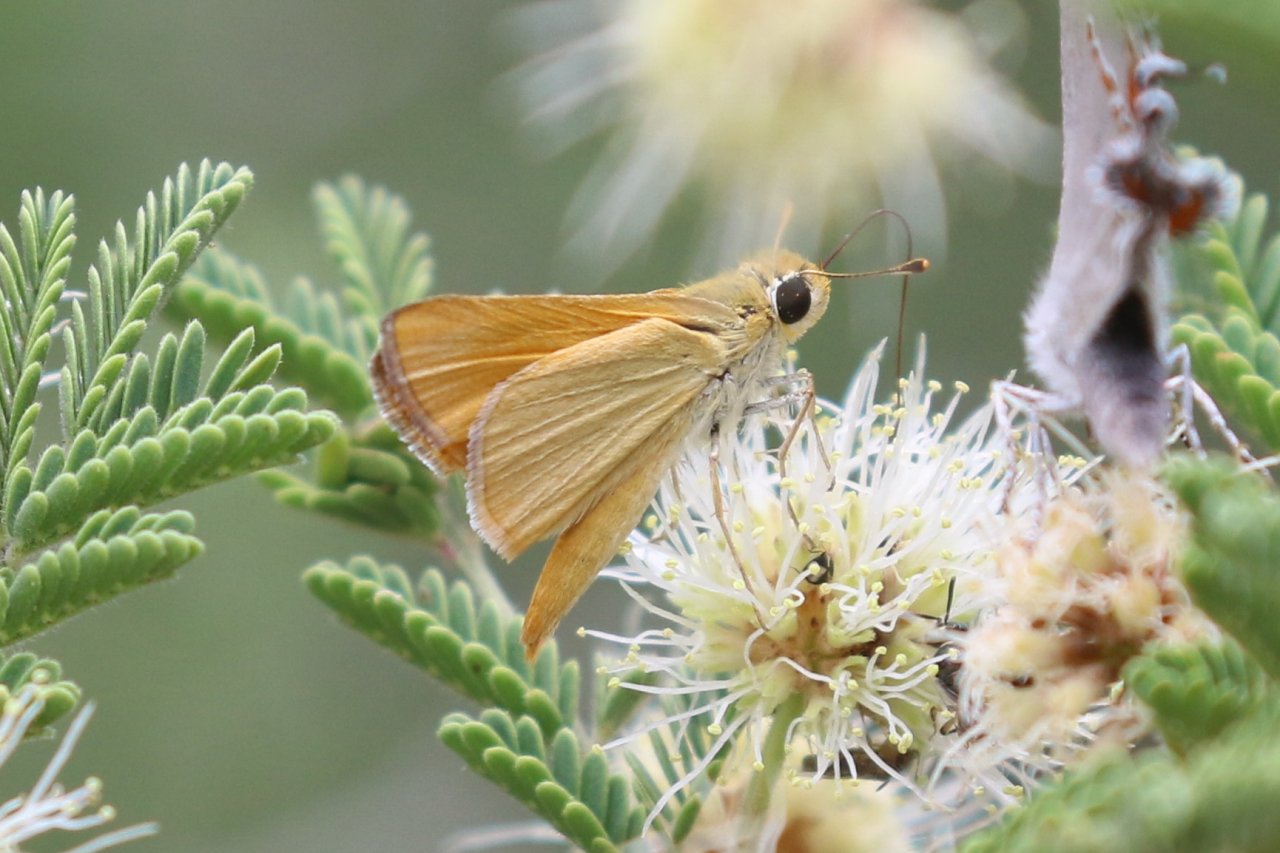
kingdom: Animalia
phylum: Arthropoda
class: Insecta
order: Lepidoptera
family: Hesperiidae
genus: Copaeodes
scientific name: Copaeodes aurantiaca
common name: Orange Skipperling
